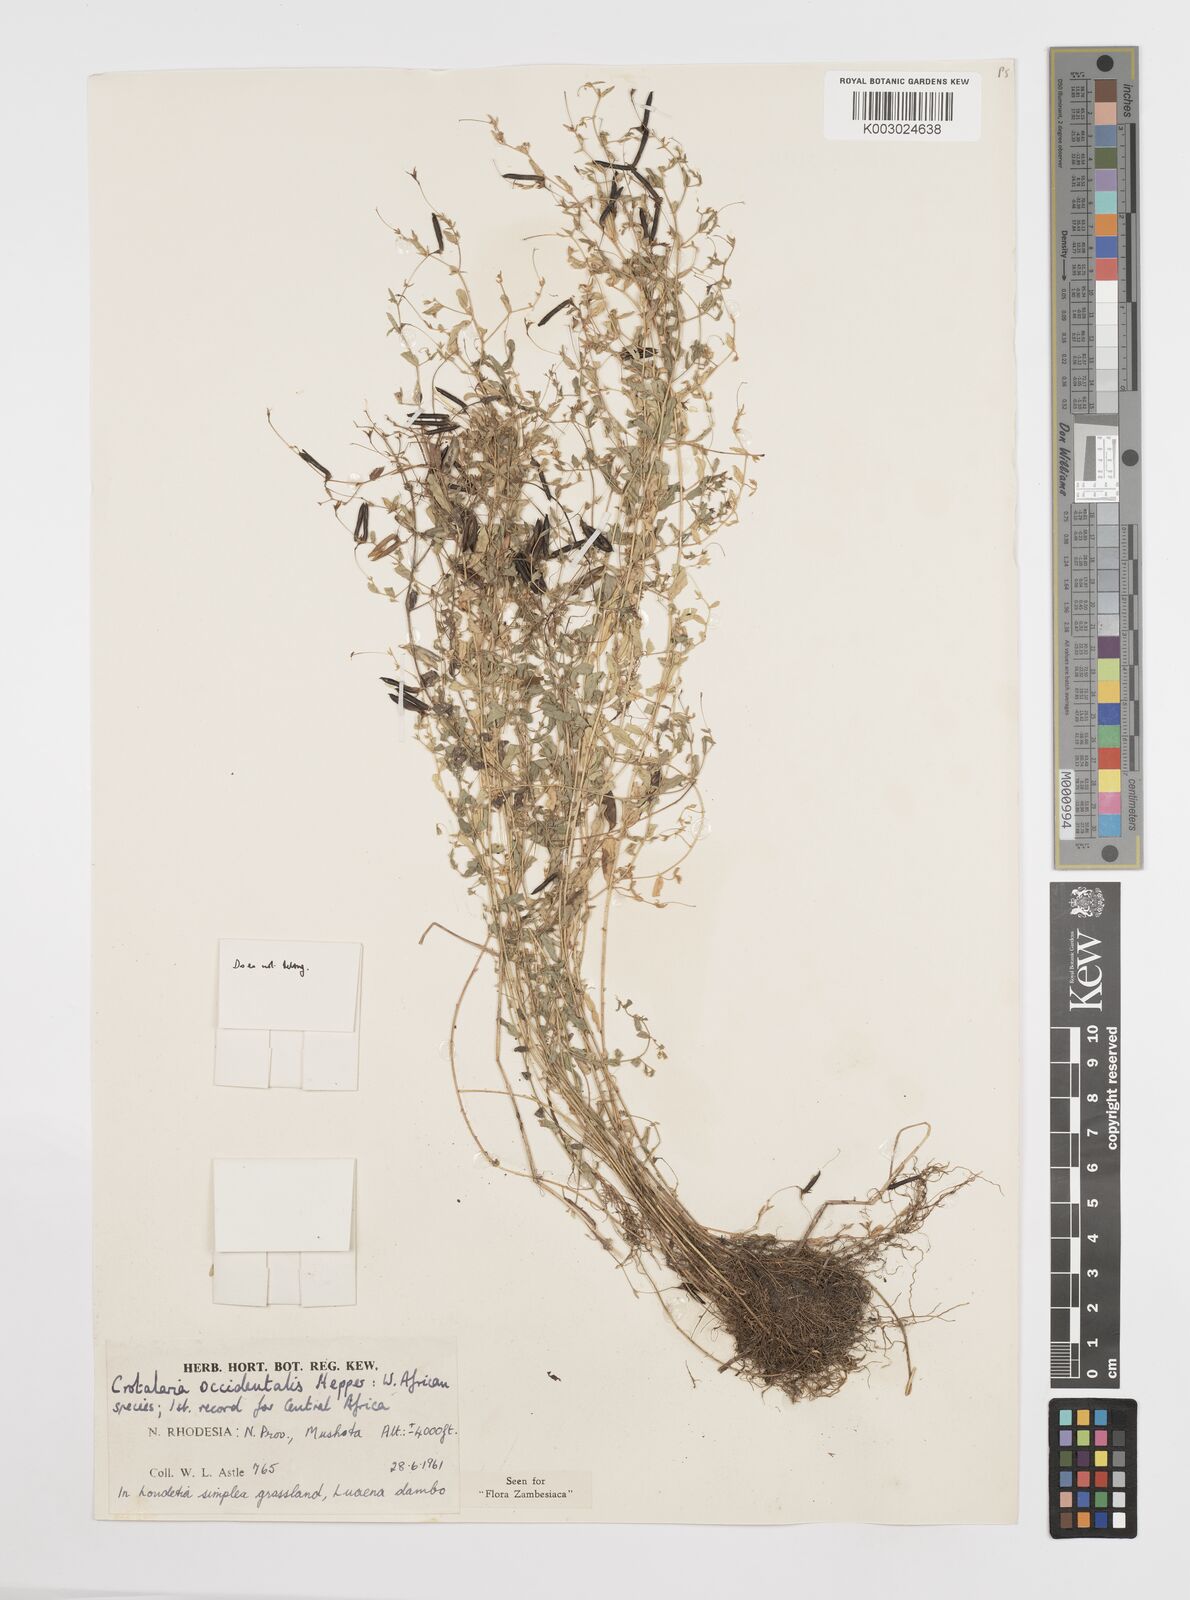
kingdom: Plantae
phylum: Tracheophyta
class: Magnoliopsida
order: Fabales
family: Fabaceae
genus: Crotalaria
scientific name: Crotalaria occidentalis
